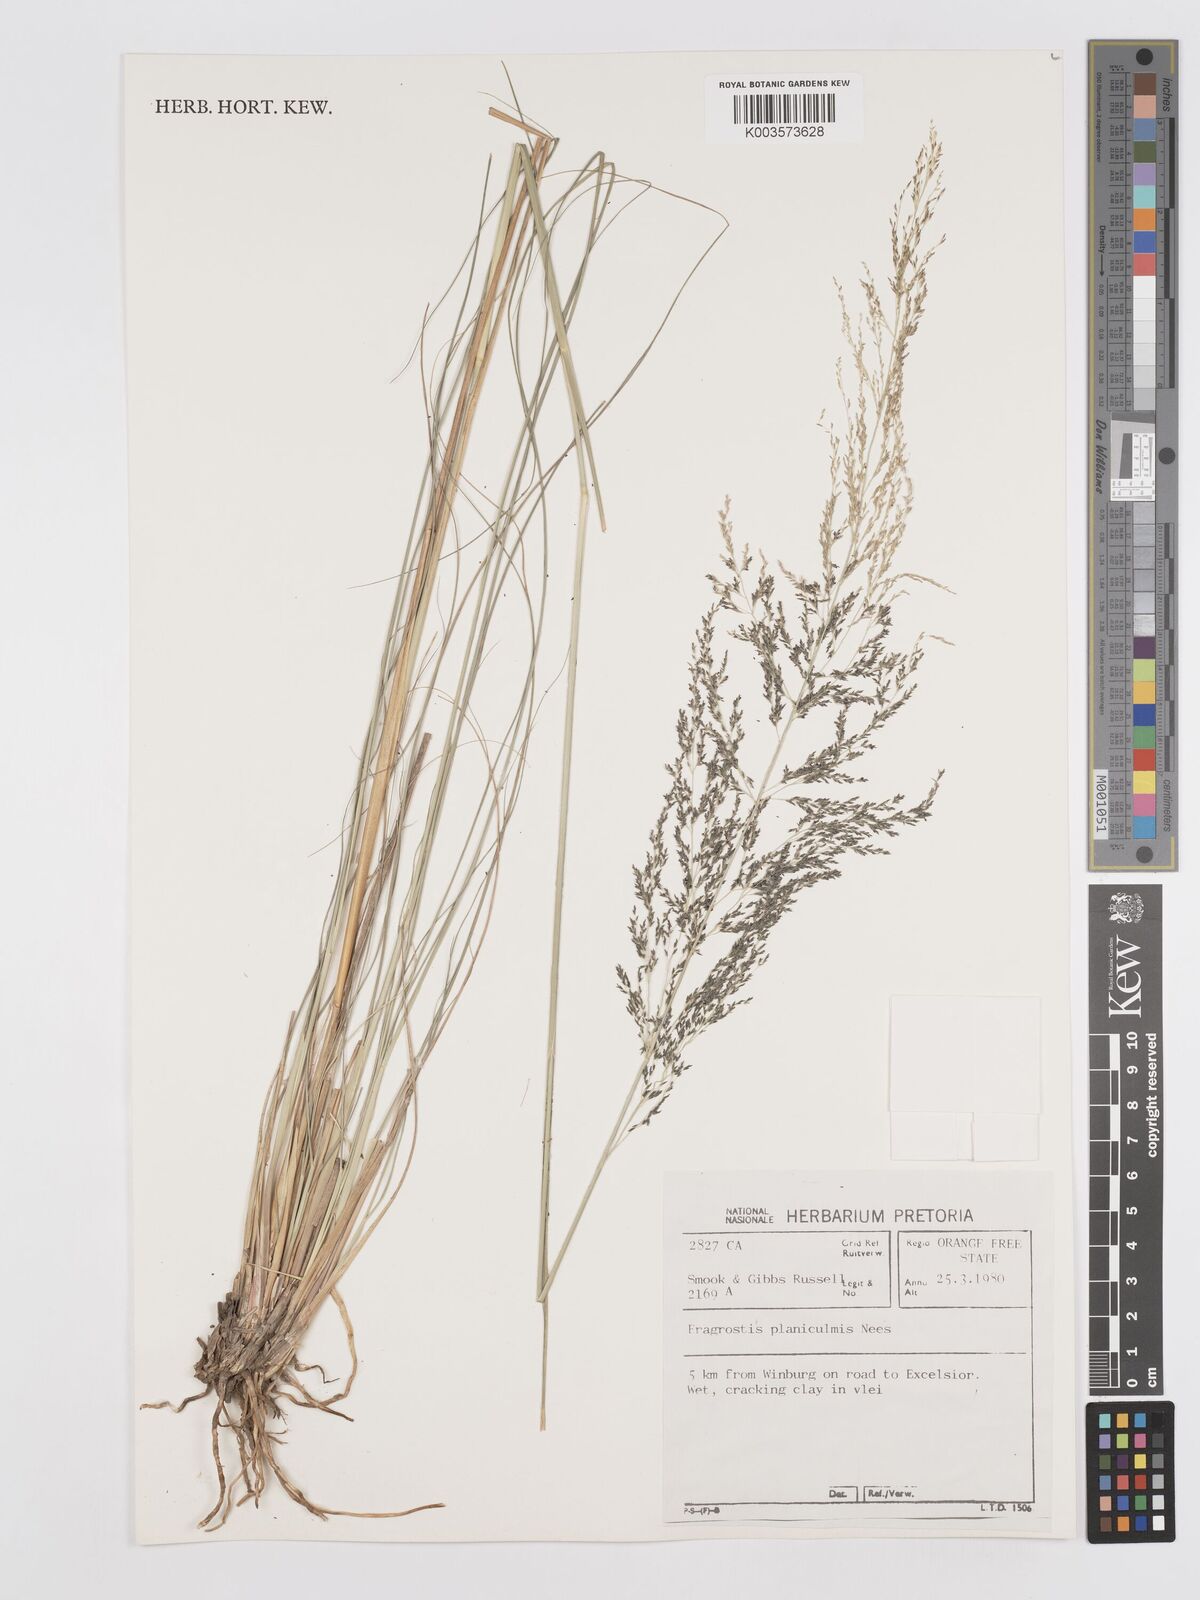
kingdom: Plantae
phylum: Tracheophyta
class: Liliopsida
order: Poales
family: Poaceae
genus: Eragrostis
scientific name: Eragrostis planiculmis
